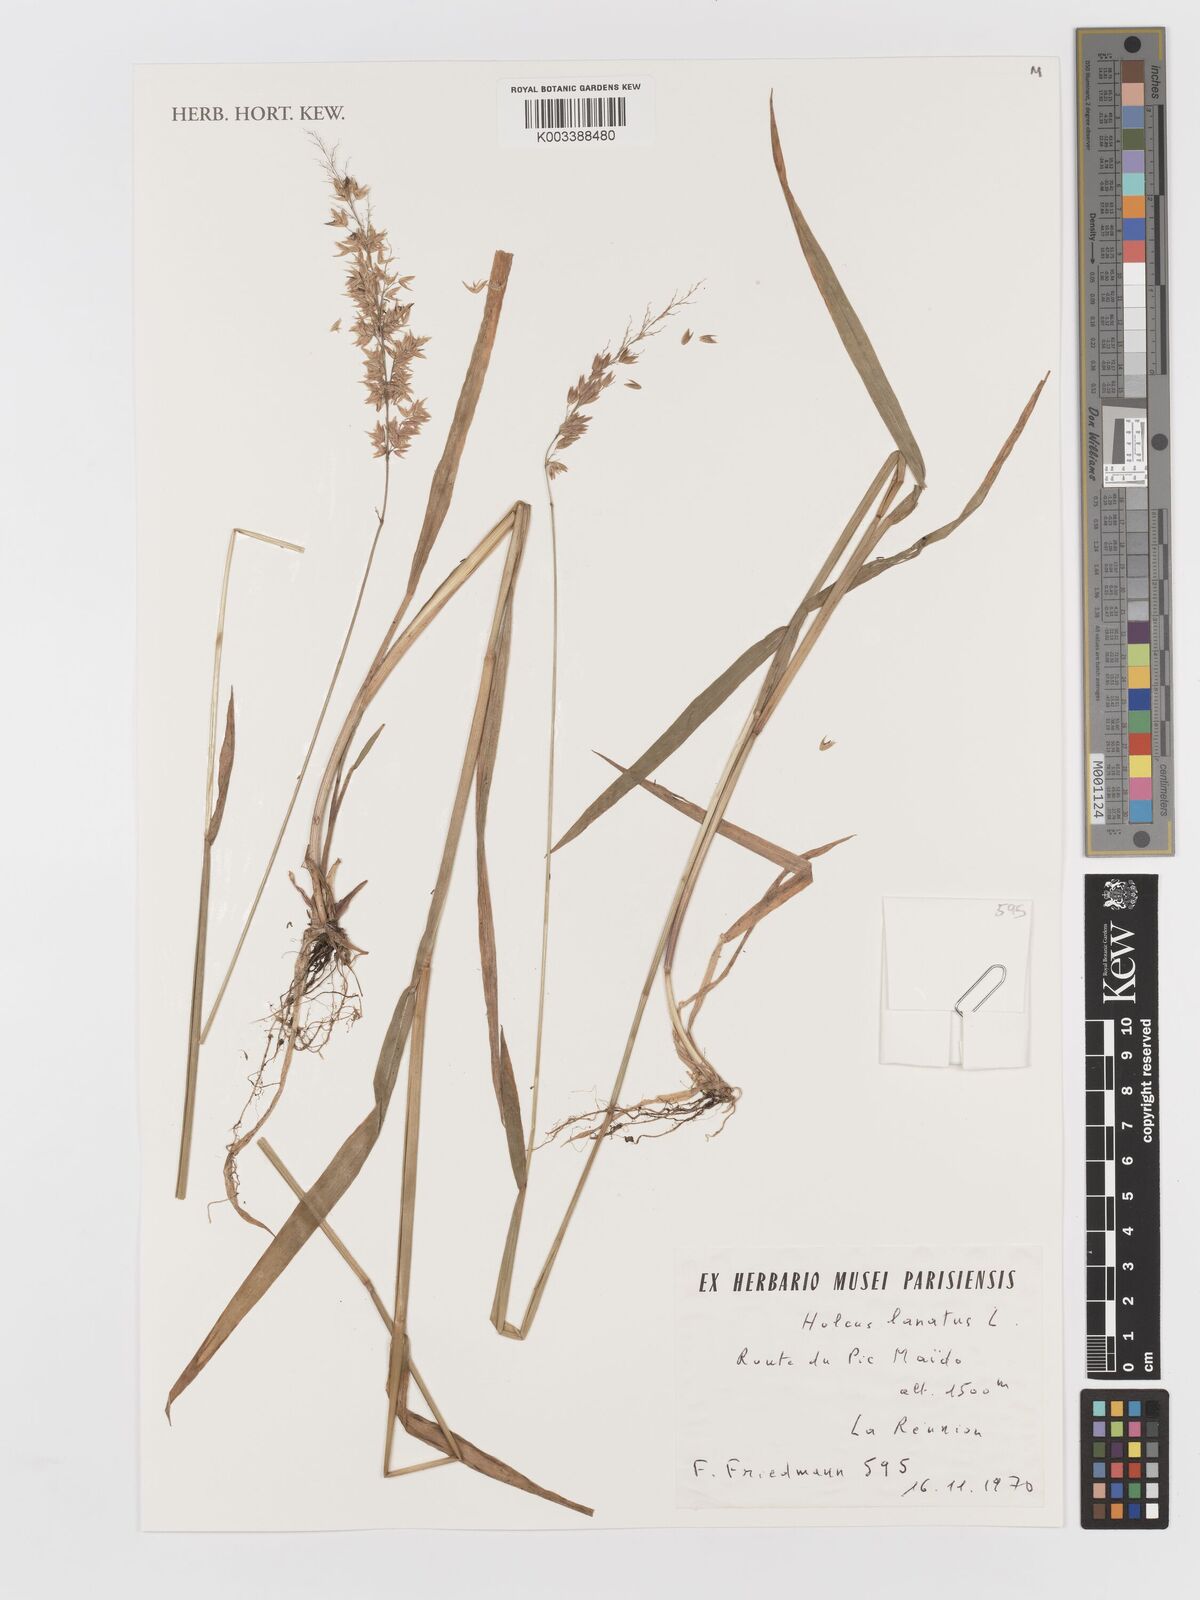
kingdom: Plantae
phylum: Tracheophyta
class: Liliopsida
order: Poales
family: Poaceae
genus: Holcus
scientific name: Holcus lanatus
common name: Yorkshire-fog
